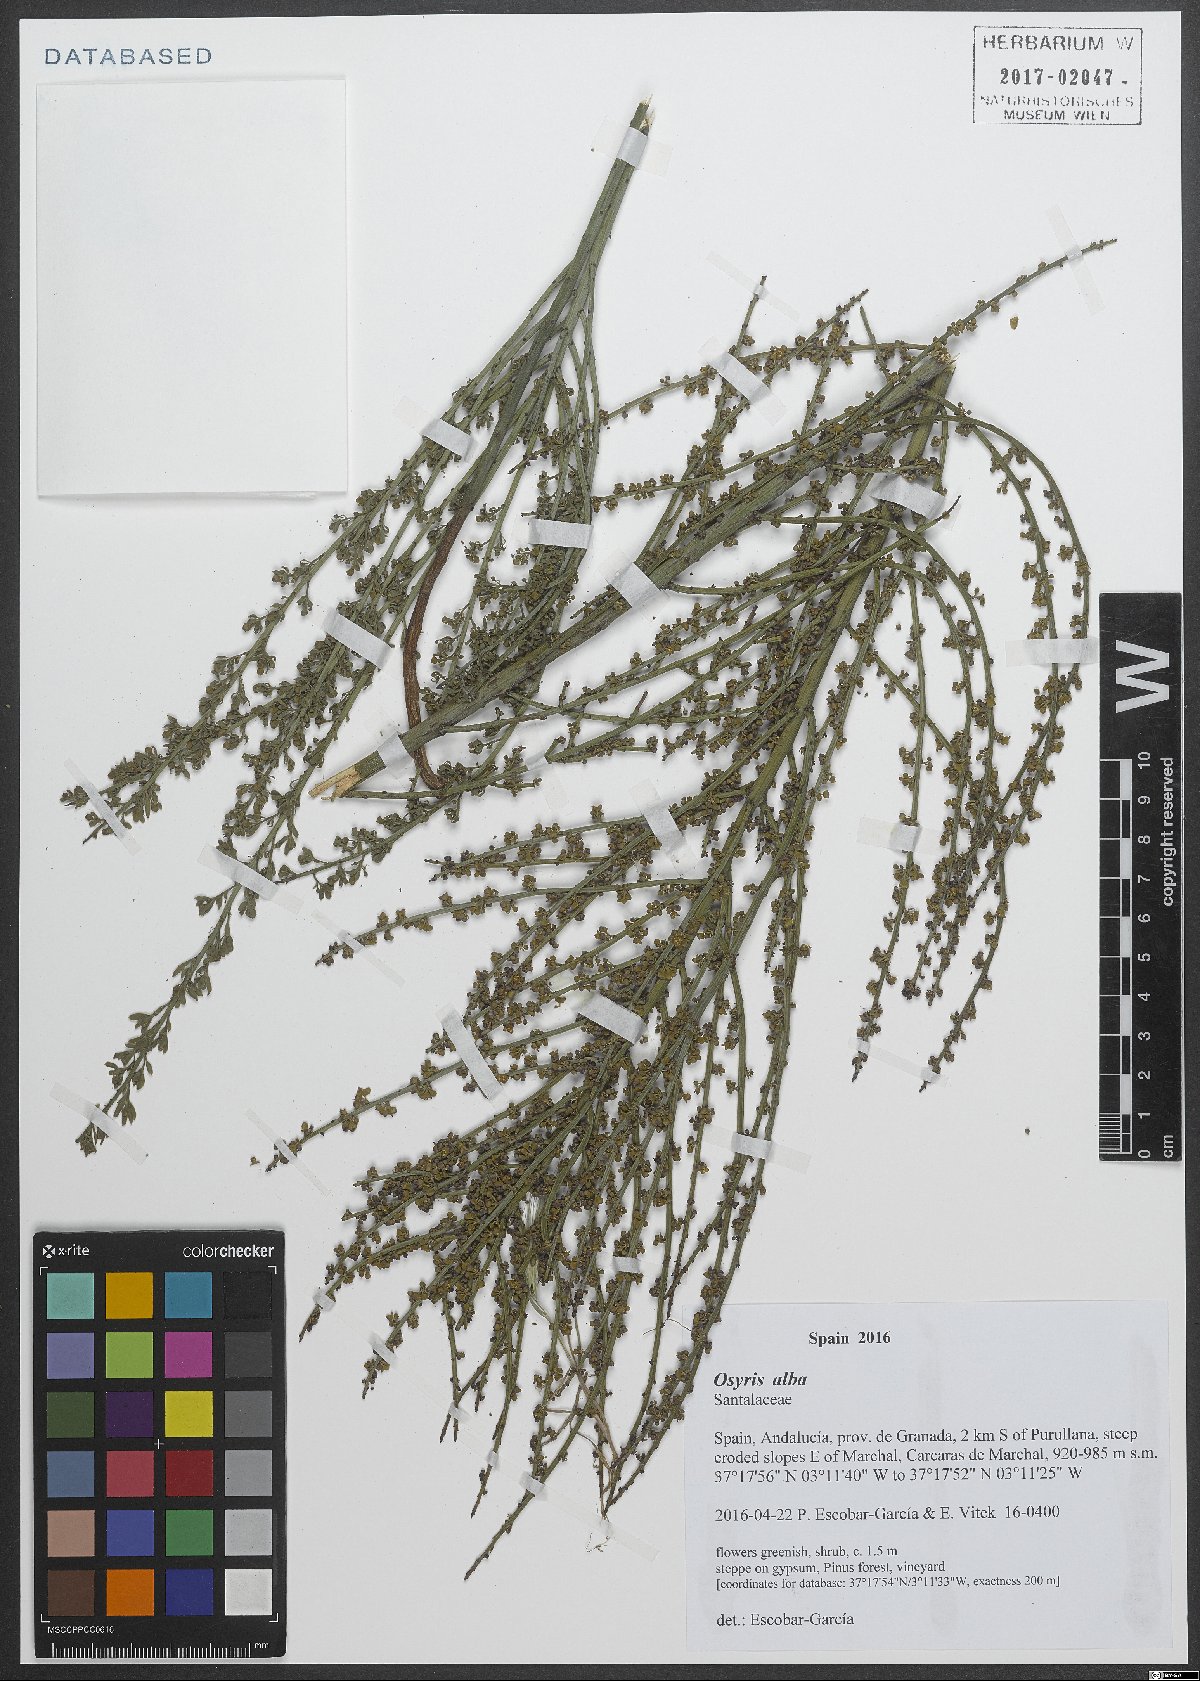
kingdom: Plantae
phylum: Tracheophyta
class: Magnoliopsida
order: Santalales
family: Santalaceae
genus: Osyris
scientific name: Osyris alba
